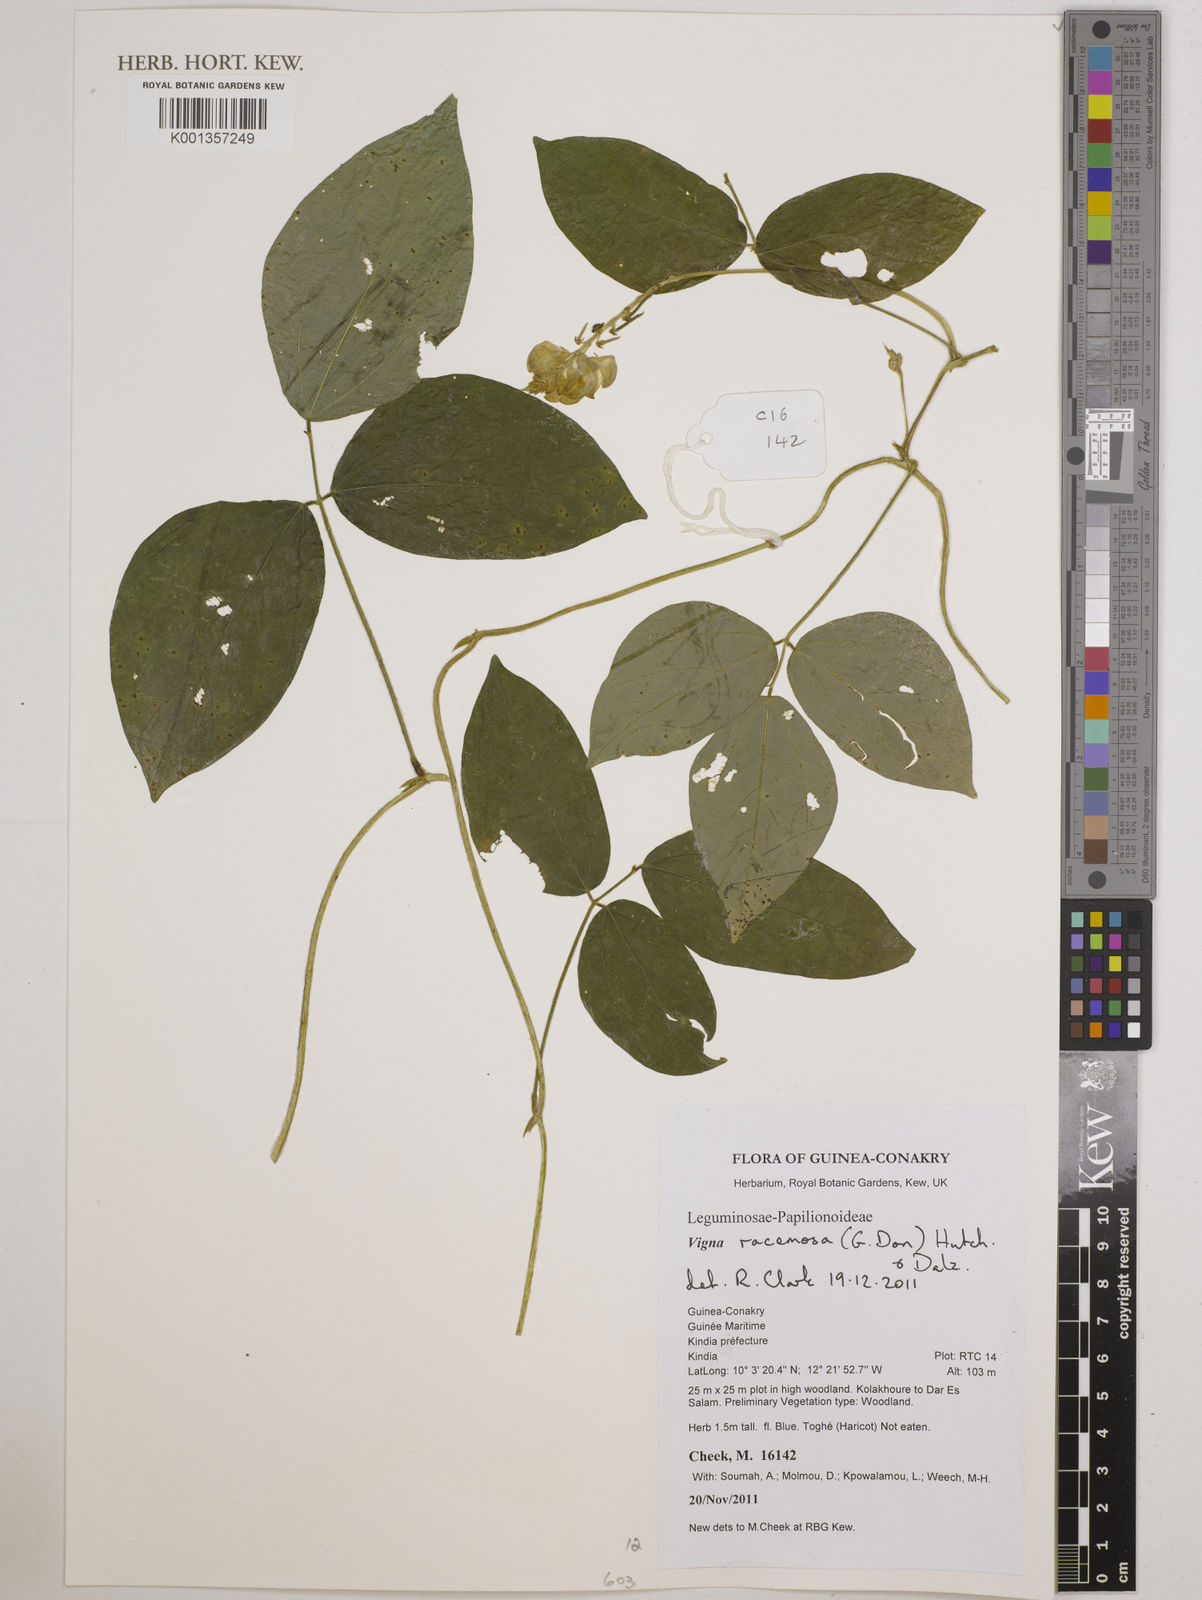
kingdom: Plantae
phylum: Tracheophyta
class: Magnoliopsida
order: Fabales
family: Fabaceae
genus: Vigna
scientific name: Vigna racemosa
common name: Beans not eaten
